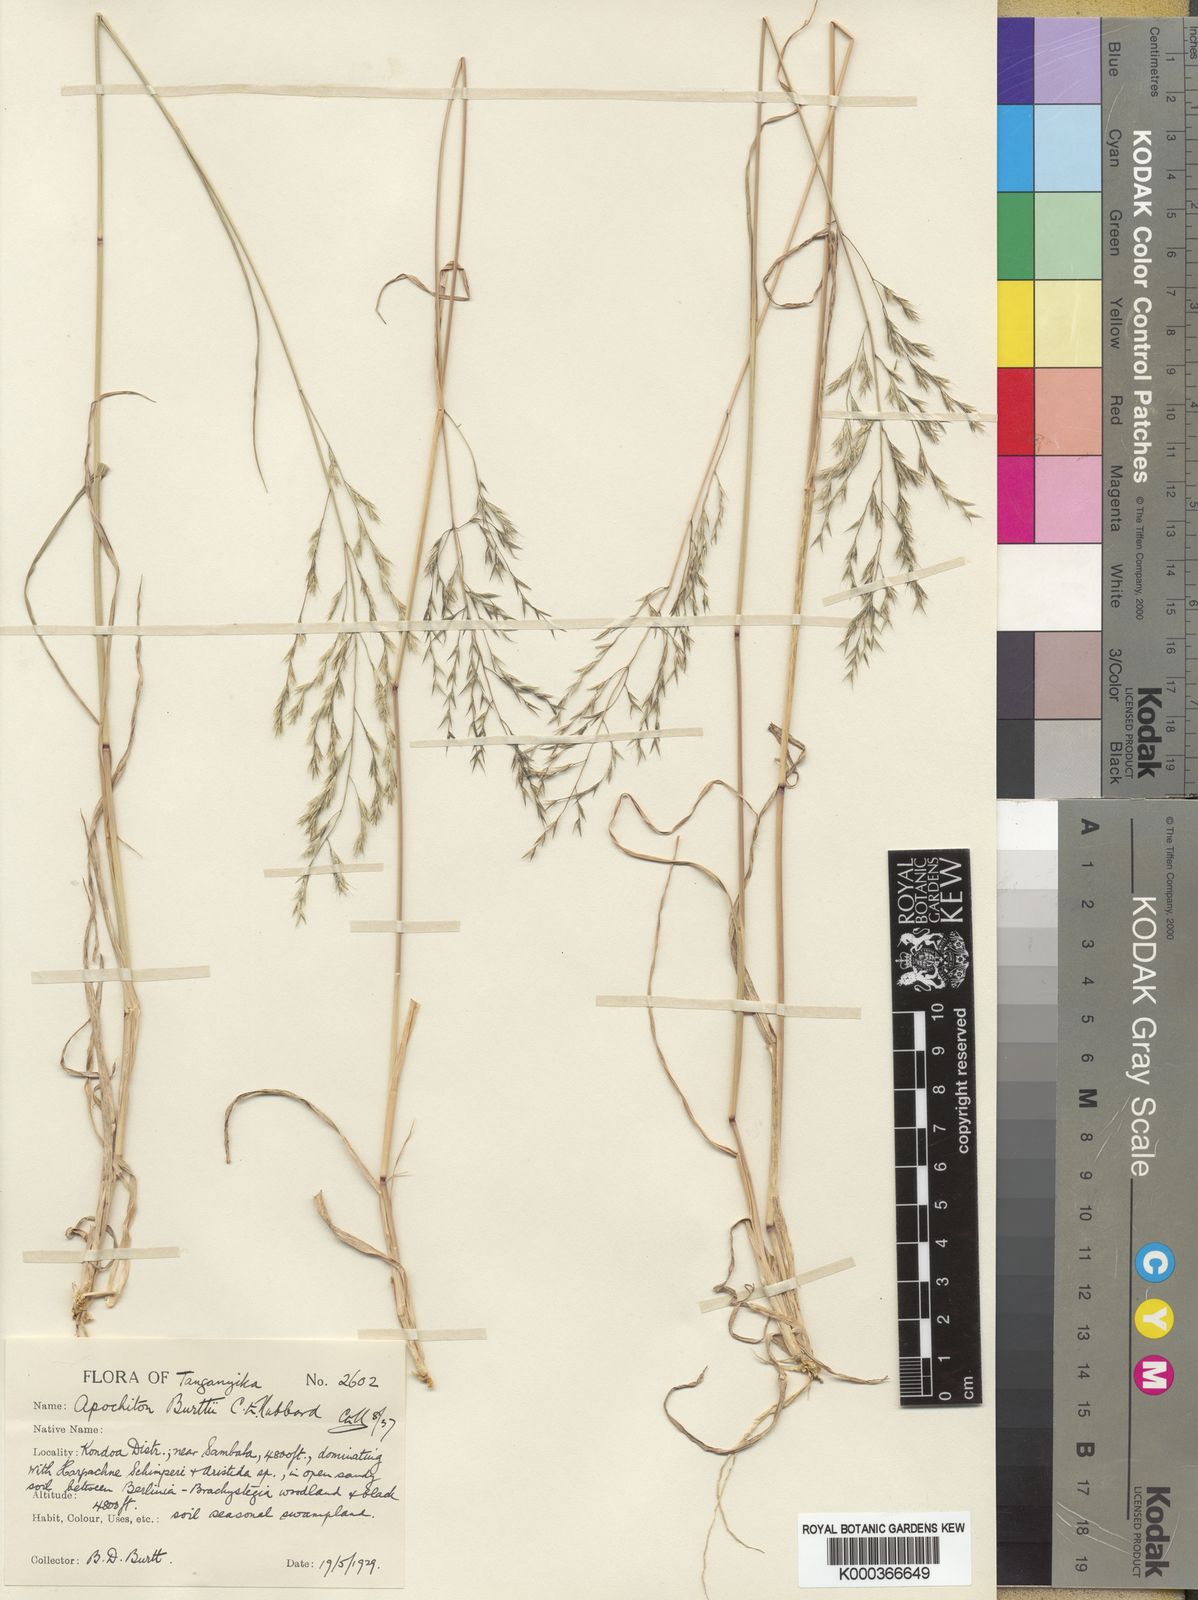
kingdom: Plantae
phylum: Tracheophyta
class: Liliopsida
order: Poales
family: Poaceae
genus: Apochiton
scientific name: Apochiton burttii
